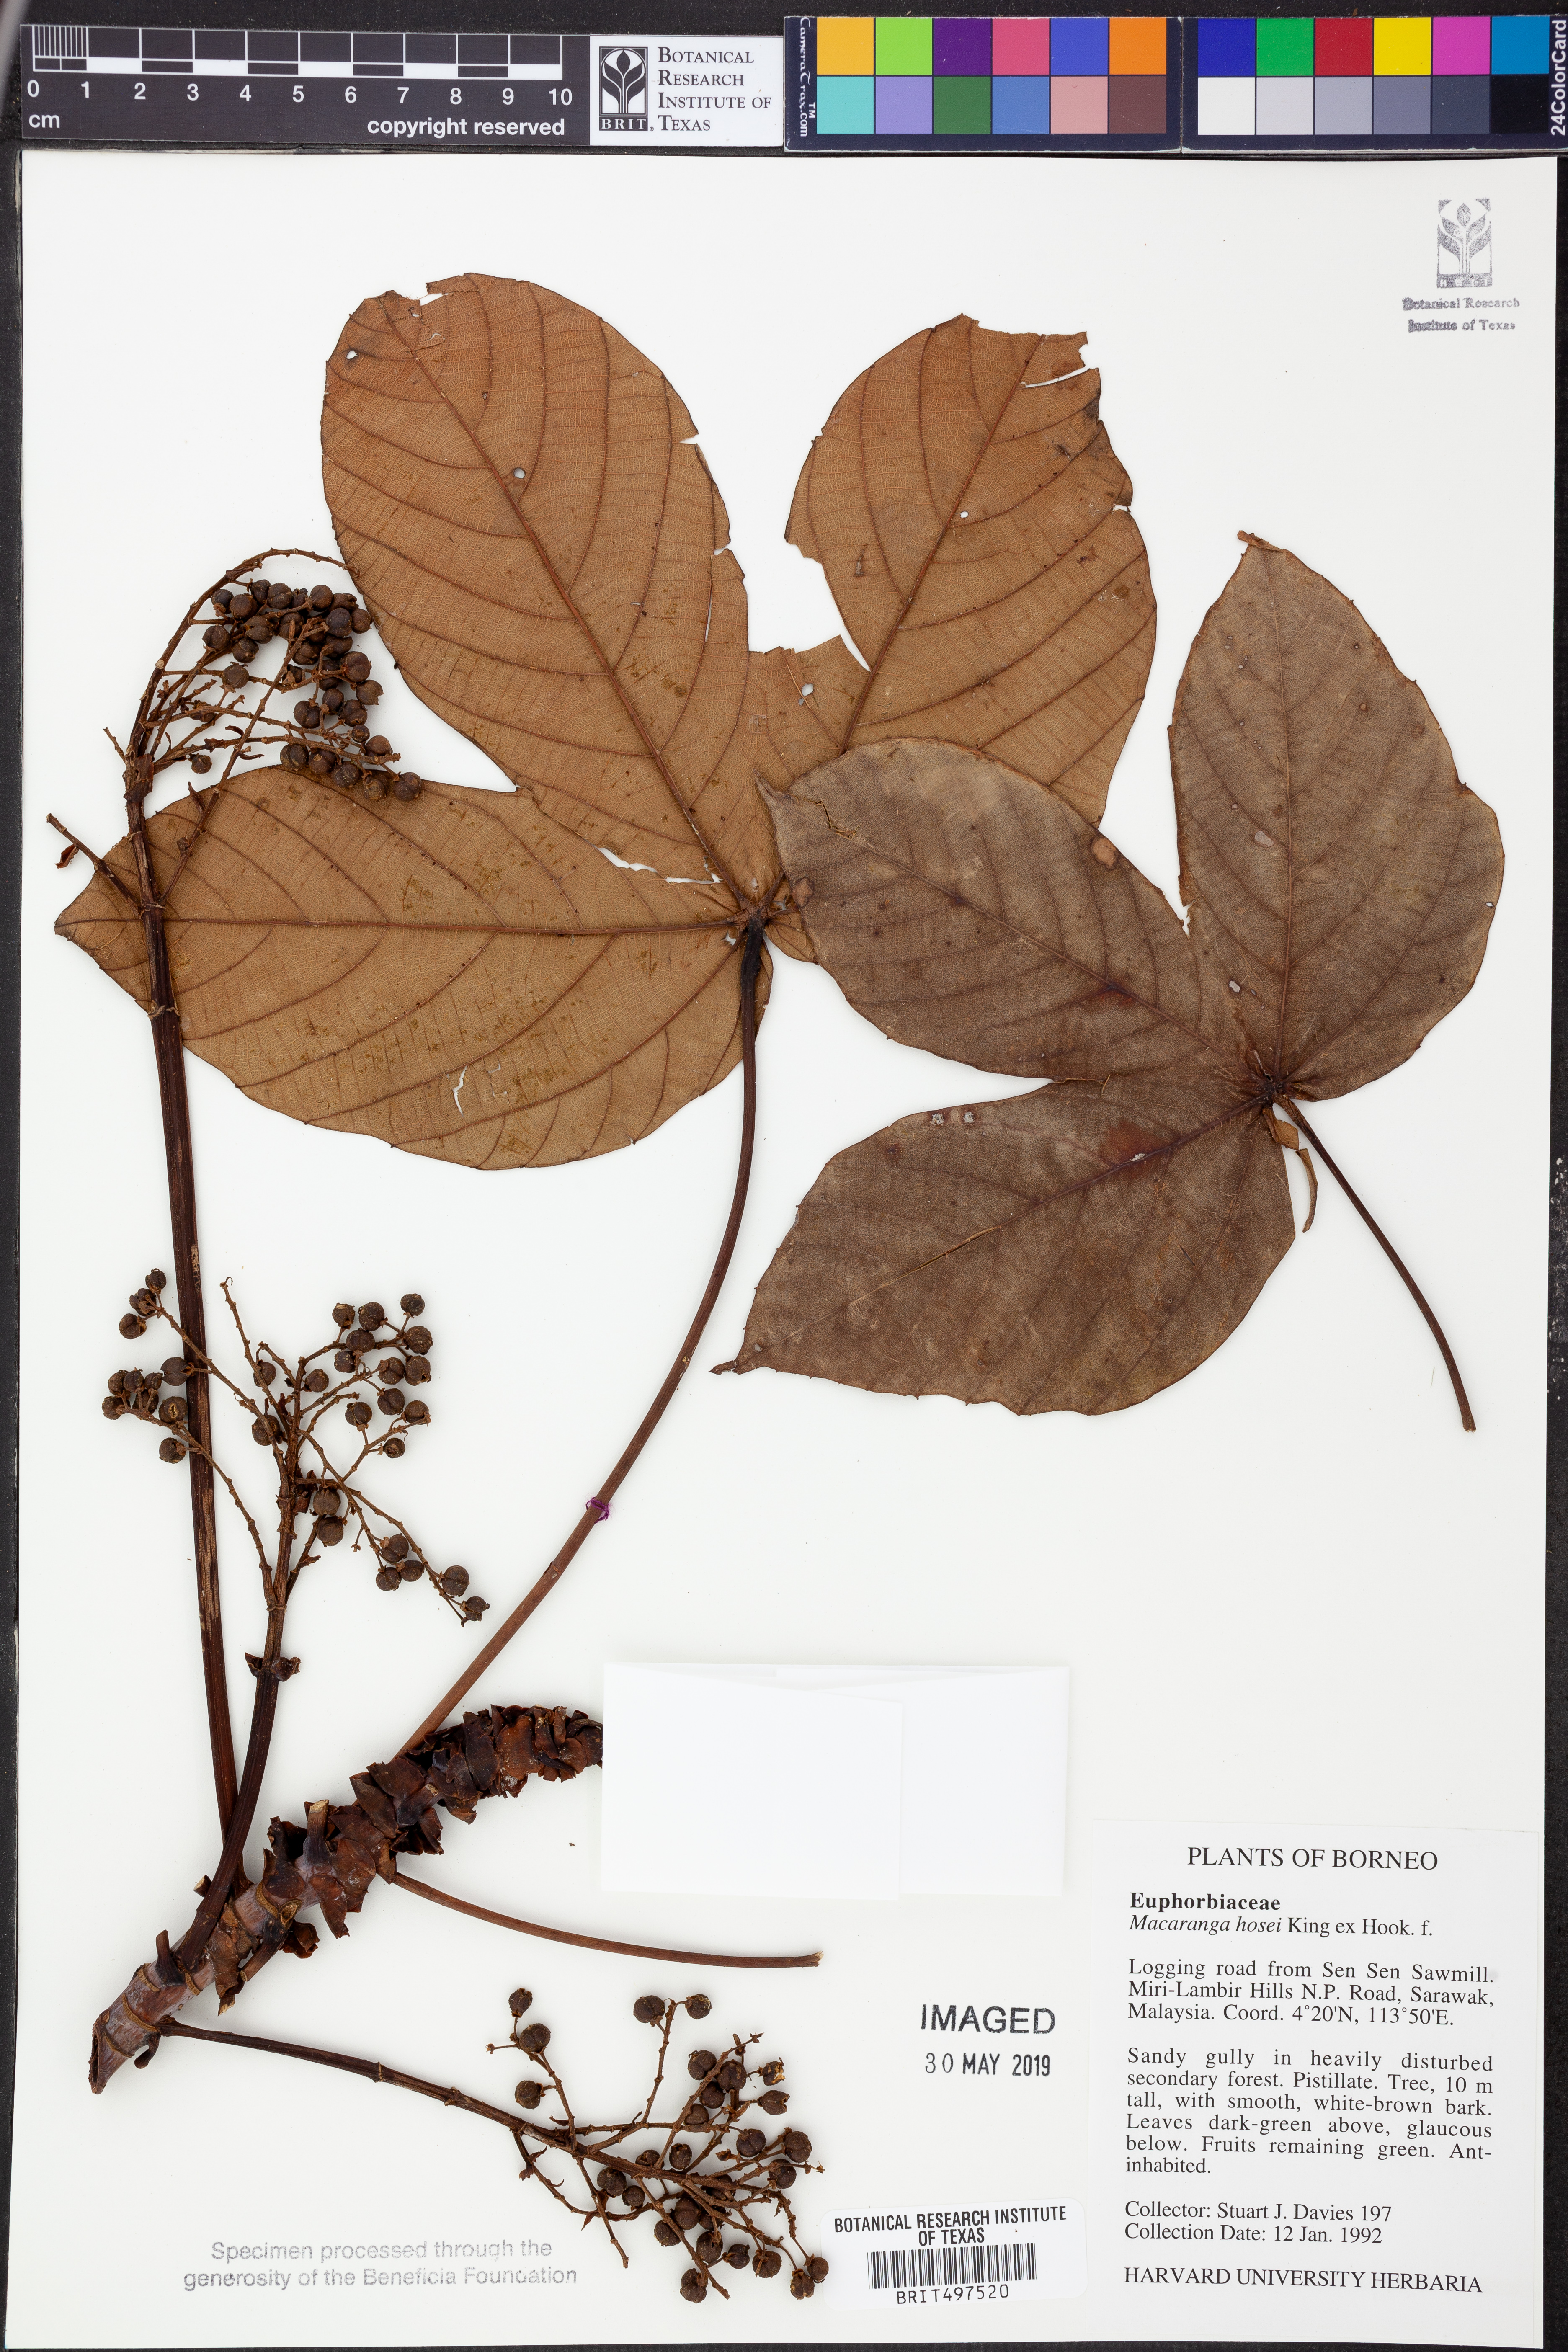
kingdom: Plantae
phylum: Tracheophyta
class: Magnoliopsida
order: Malpighiales
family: Euphorbiaceae
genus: Macaranga
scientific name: Macaranga hosei
